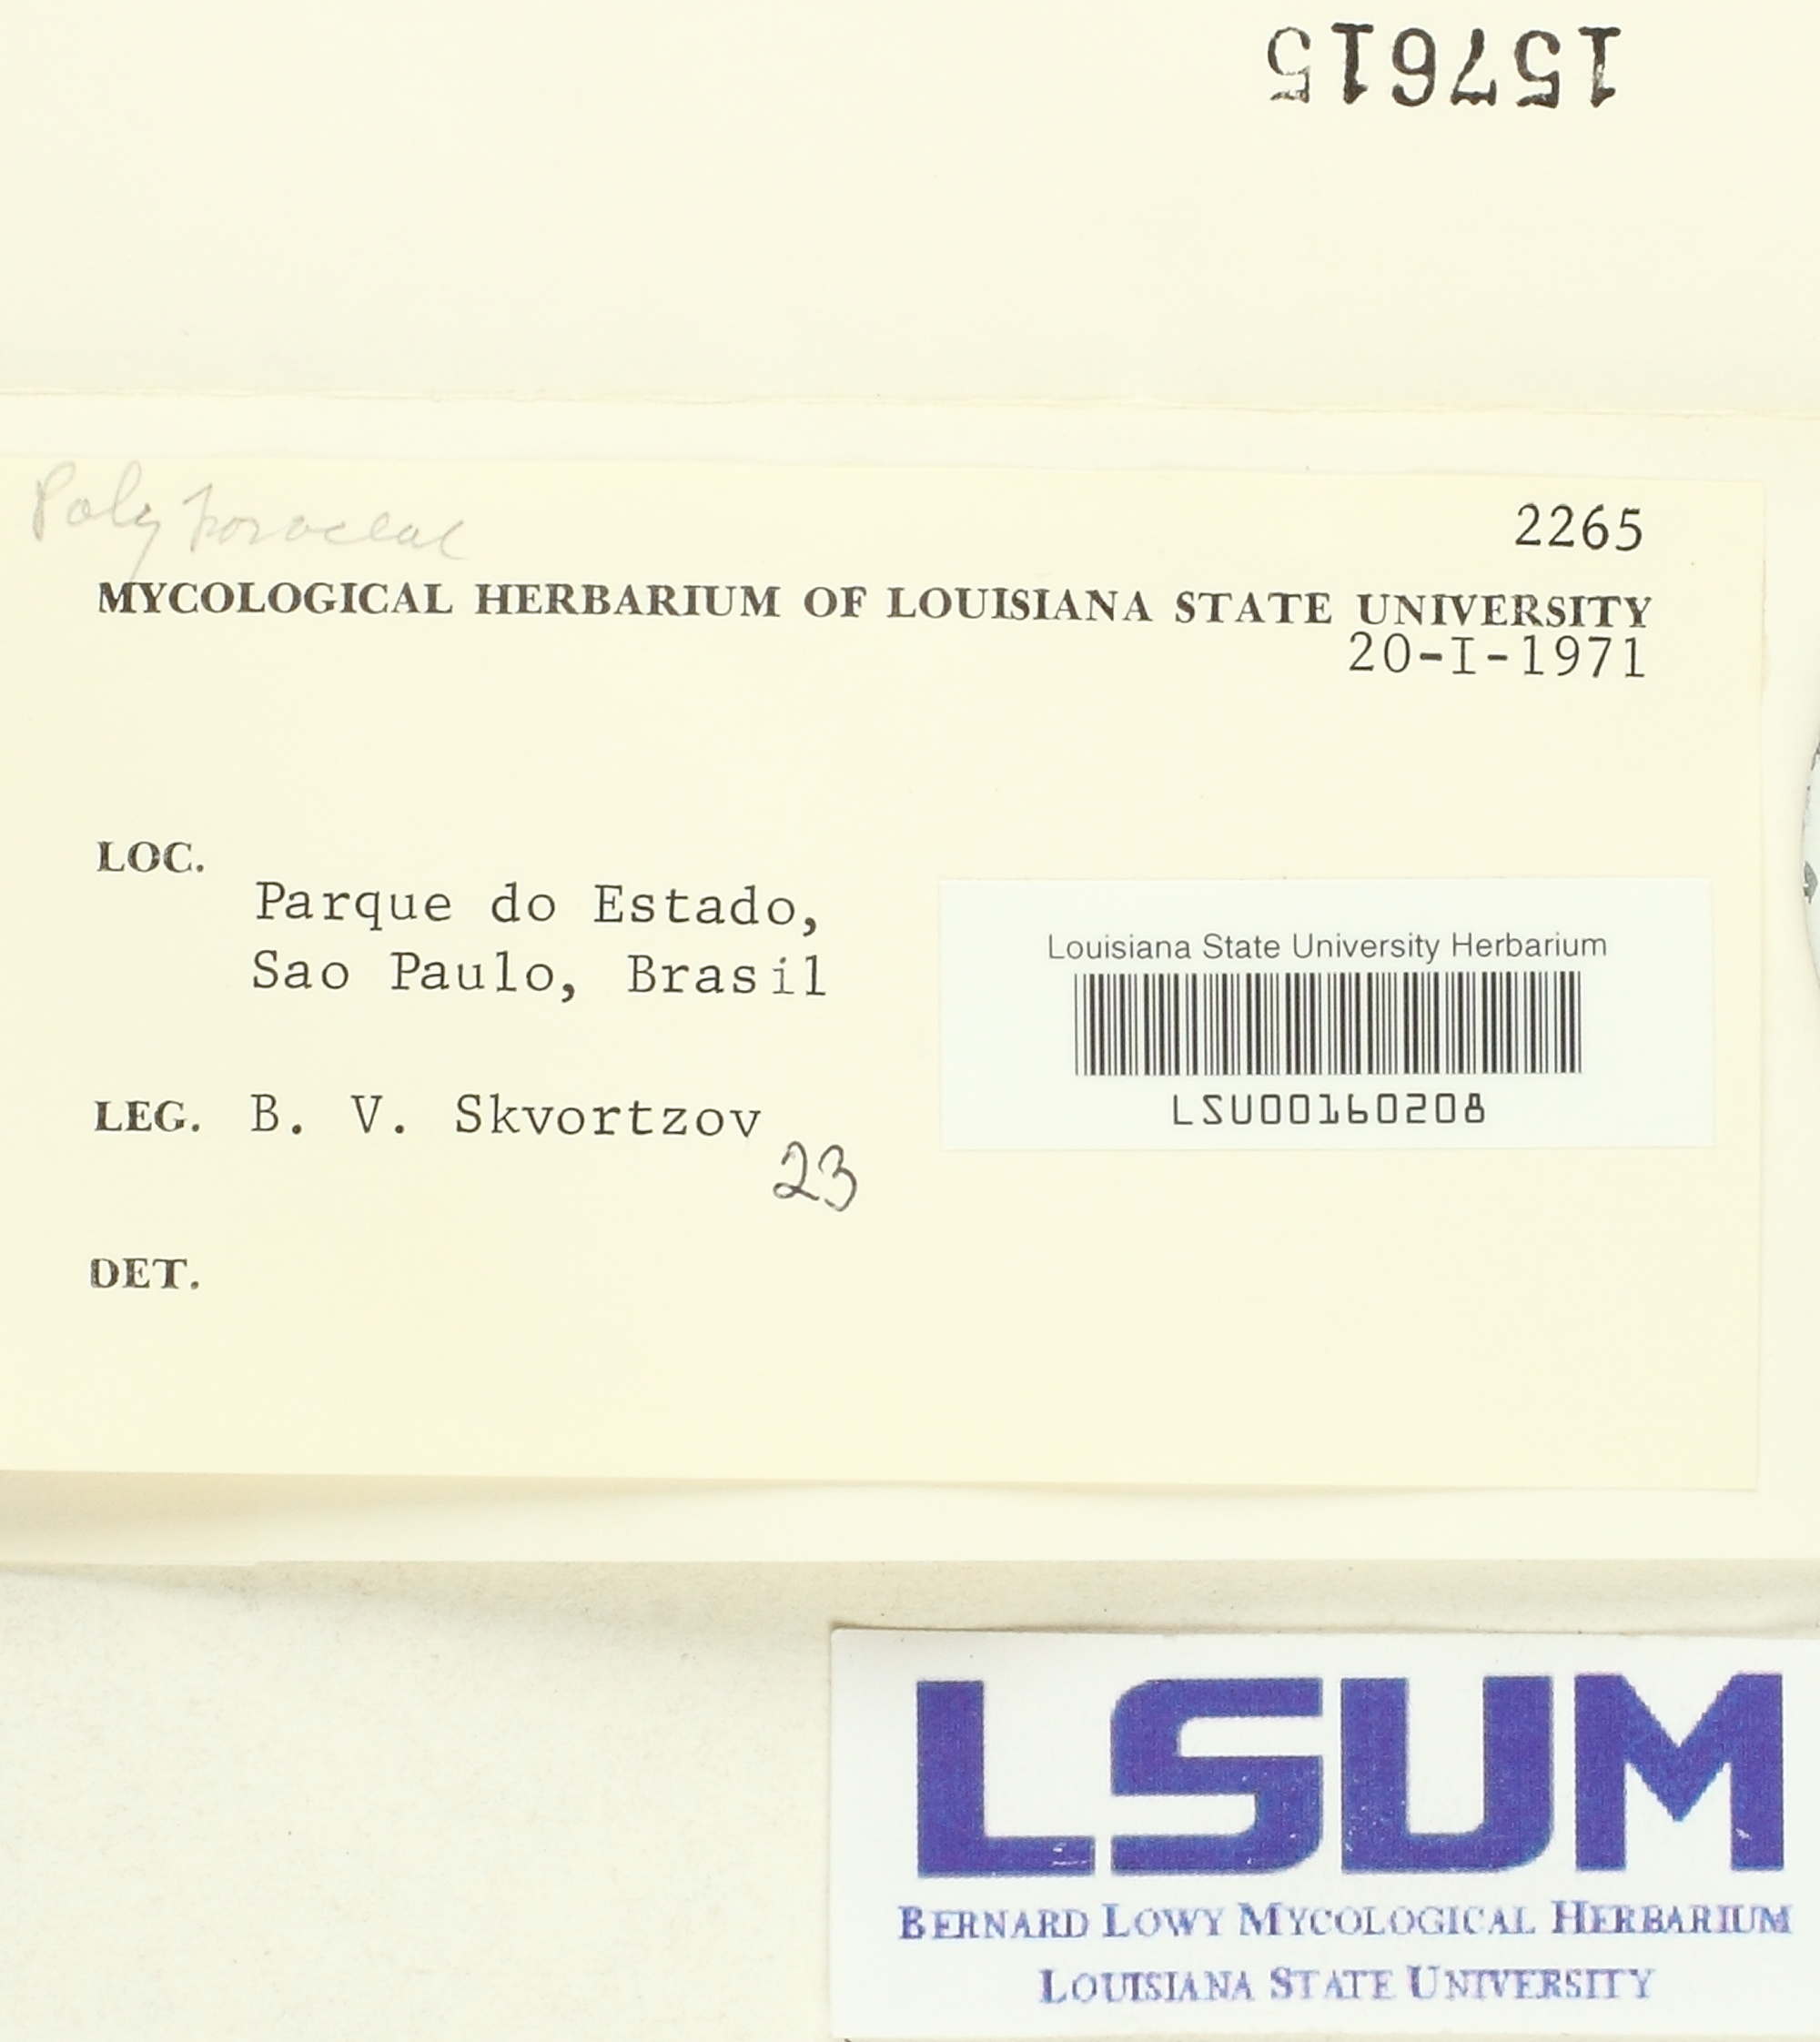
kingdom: Fungi
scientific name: Fungi
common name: Fungi
